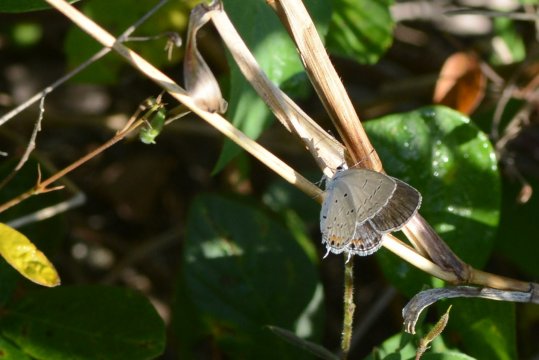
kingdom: Animalia
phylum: Arthropoda
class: Insecta
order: Lepidoptera
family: Lycaenidae
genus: Elkalyce
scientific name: Elkalyce comyntas
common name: Eastern Tailed-Blue
